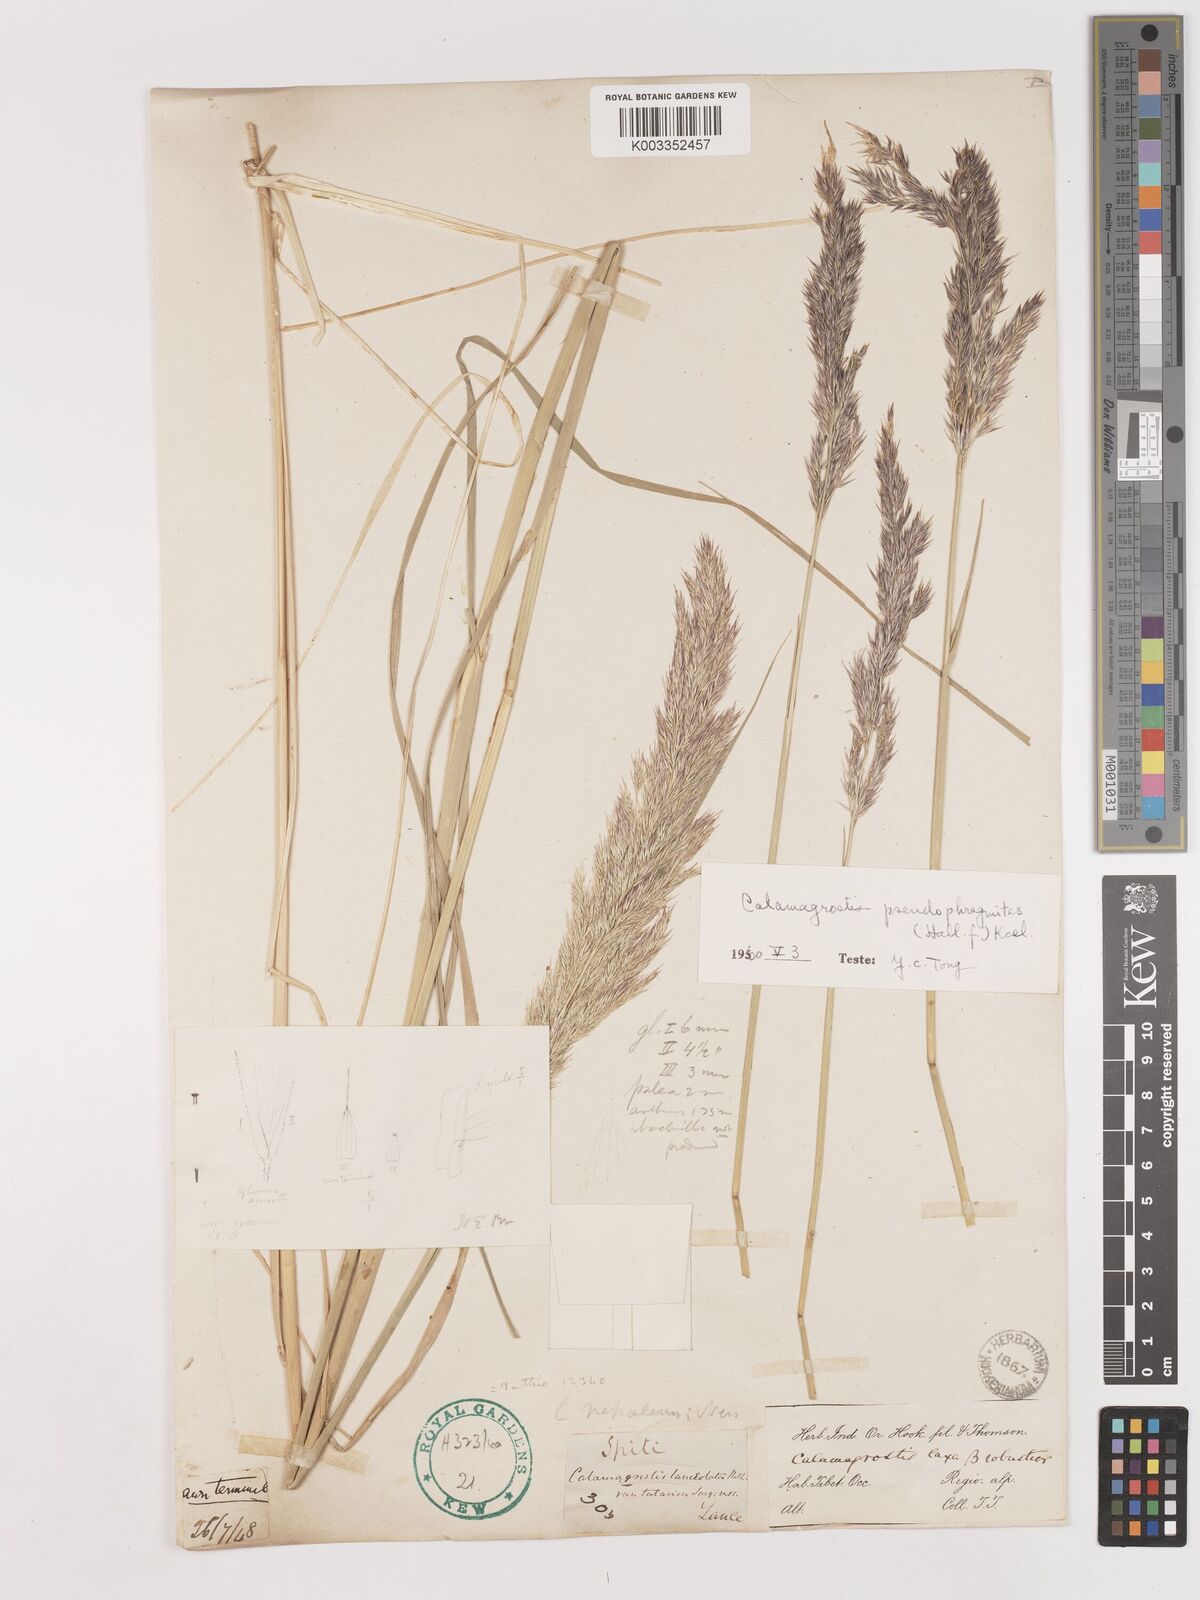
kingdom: Plantae
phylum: Tracheophyta
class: Liliopsida
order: Poales
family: Poaceae
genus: Calamagrostis
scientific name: Calamagrostis pseudophragmites
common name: Coastal small-reed
